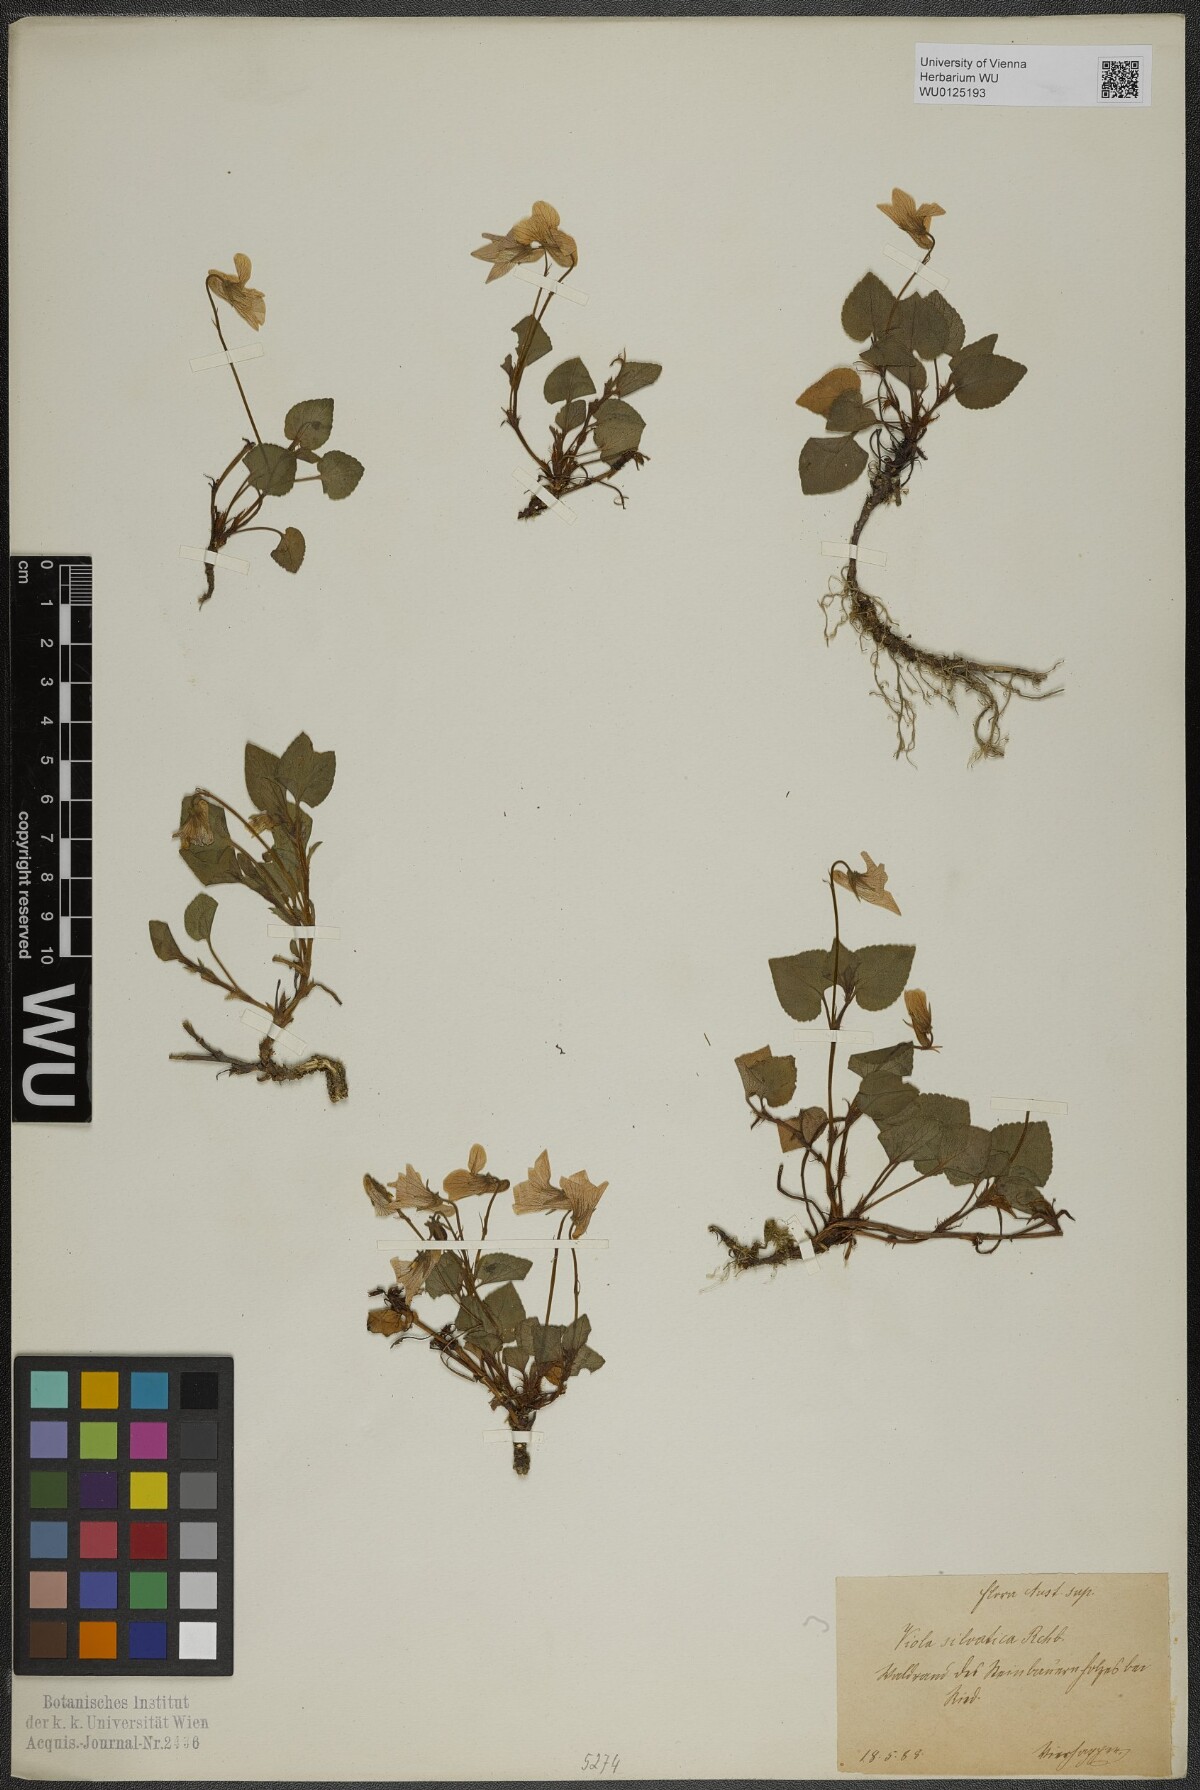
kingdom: Plantae
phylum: Tracheophyta
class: Magnoliopsida
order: Malpighiales
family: Violaceae
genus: Viola
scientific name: Viola reichenbachiana
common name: Early dog-violet
